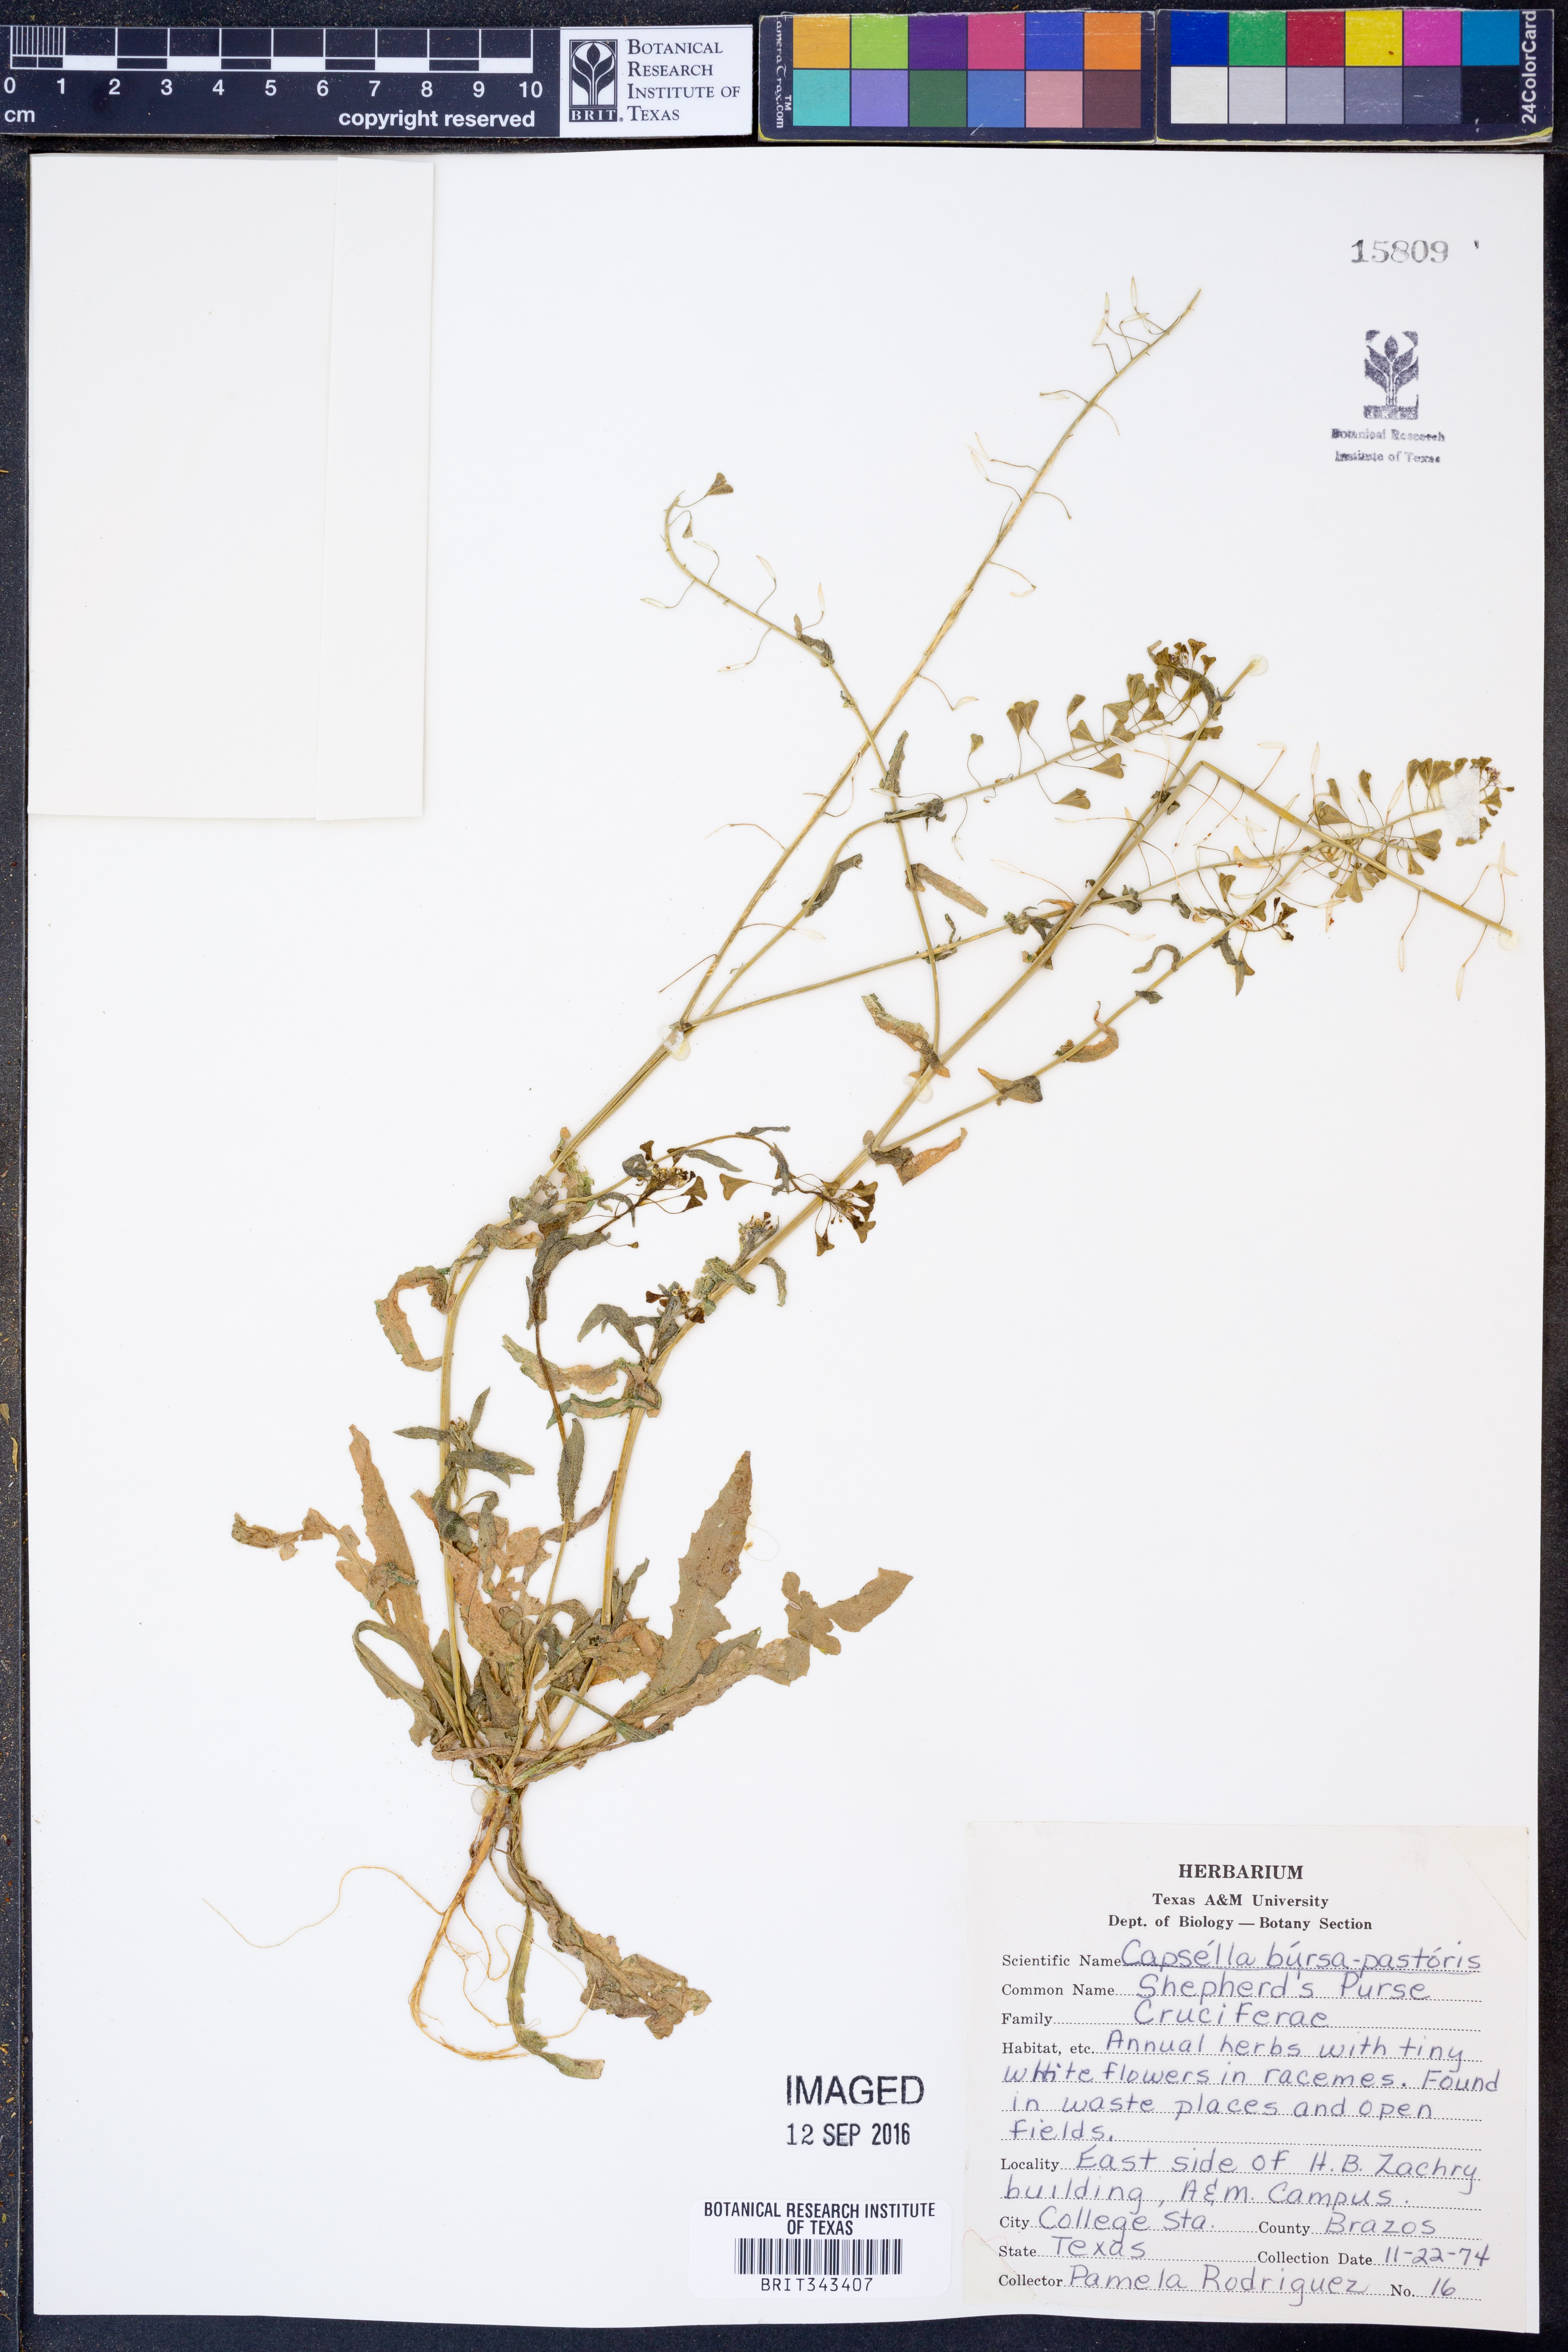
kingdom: Plantae
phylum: Tracheophyta
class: Magnoliopsida
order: Brassicales
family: Brassicaceae
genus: Capsella
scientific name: Capsella bursa-pastoris
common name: Shepherd's purse
